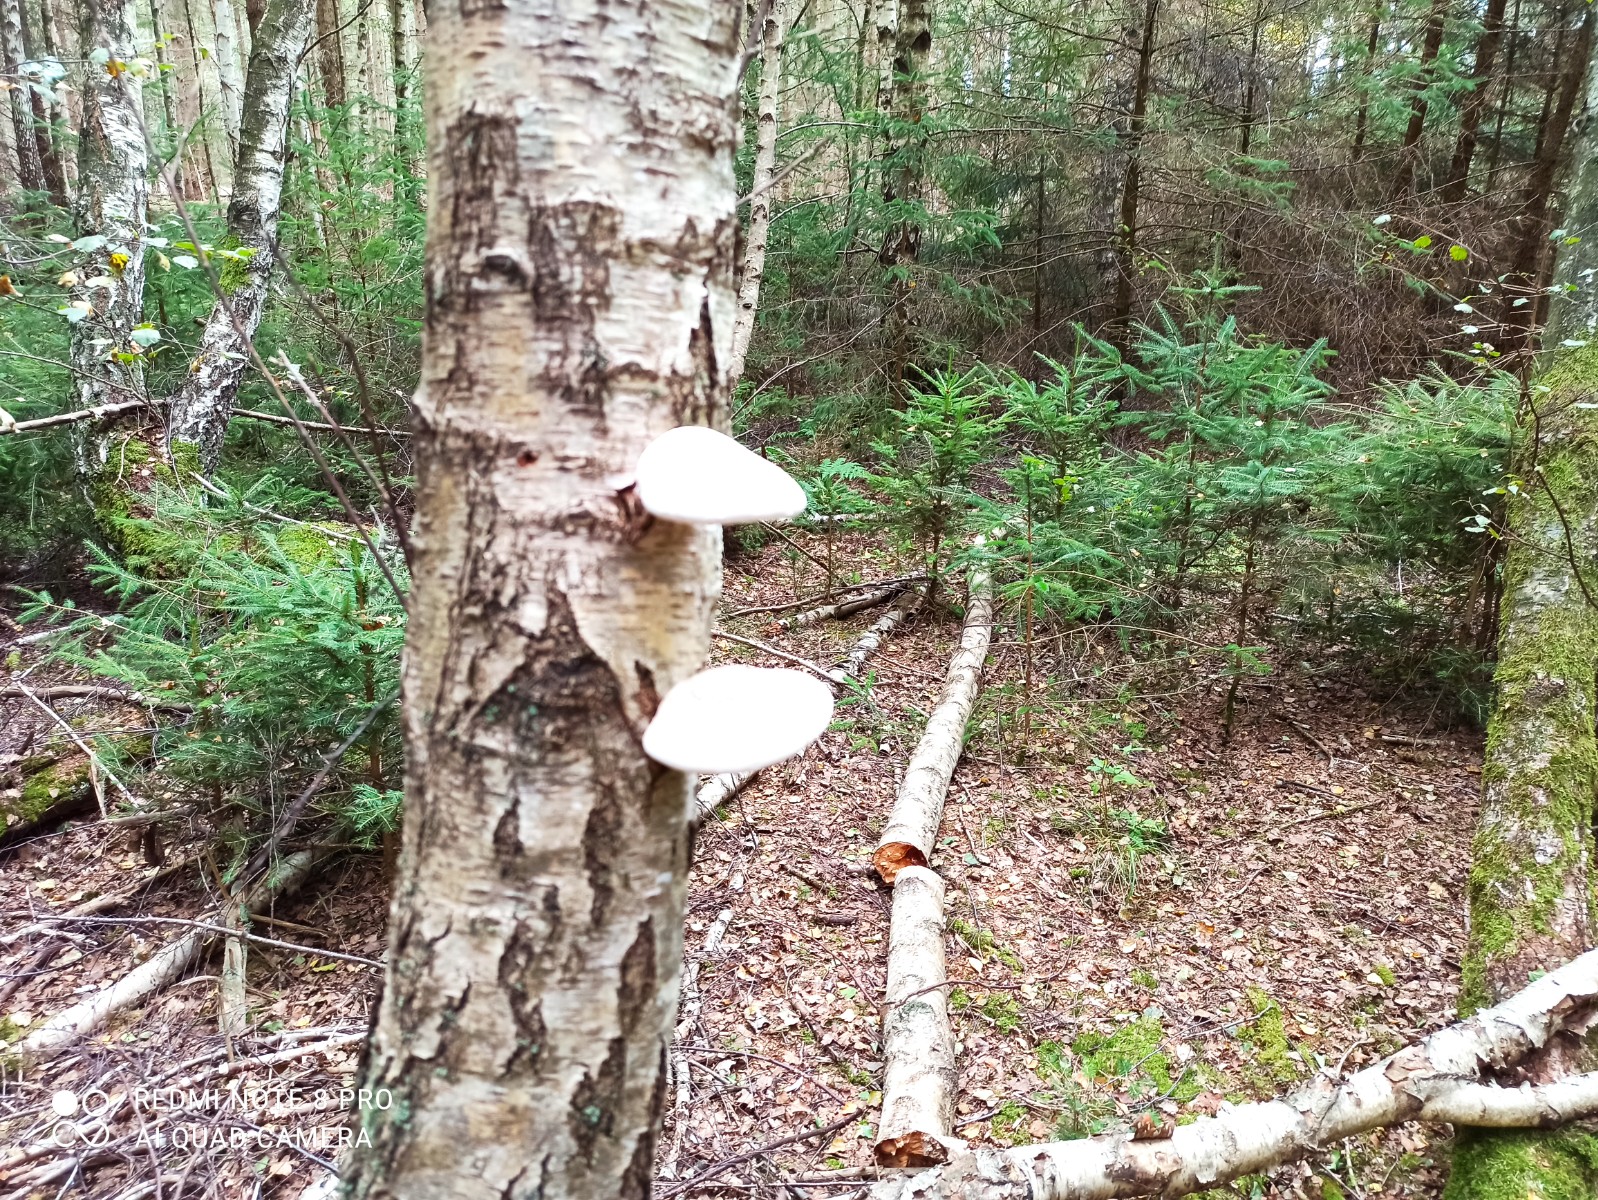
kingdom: Fungi
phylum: Basidiomycota
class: Agaricomycetes
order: Polyporales
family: Fomitopsidaceae
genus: Fomitopsis
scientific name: Fomitopsis betulina
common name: birkeporesvamp
